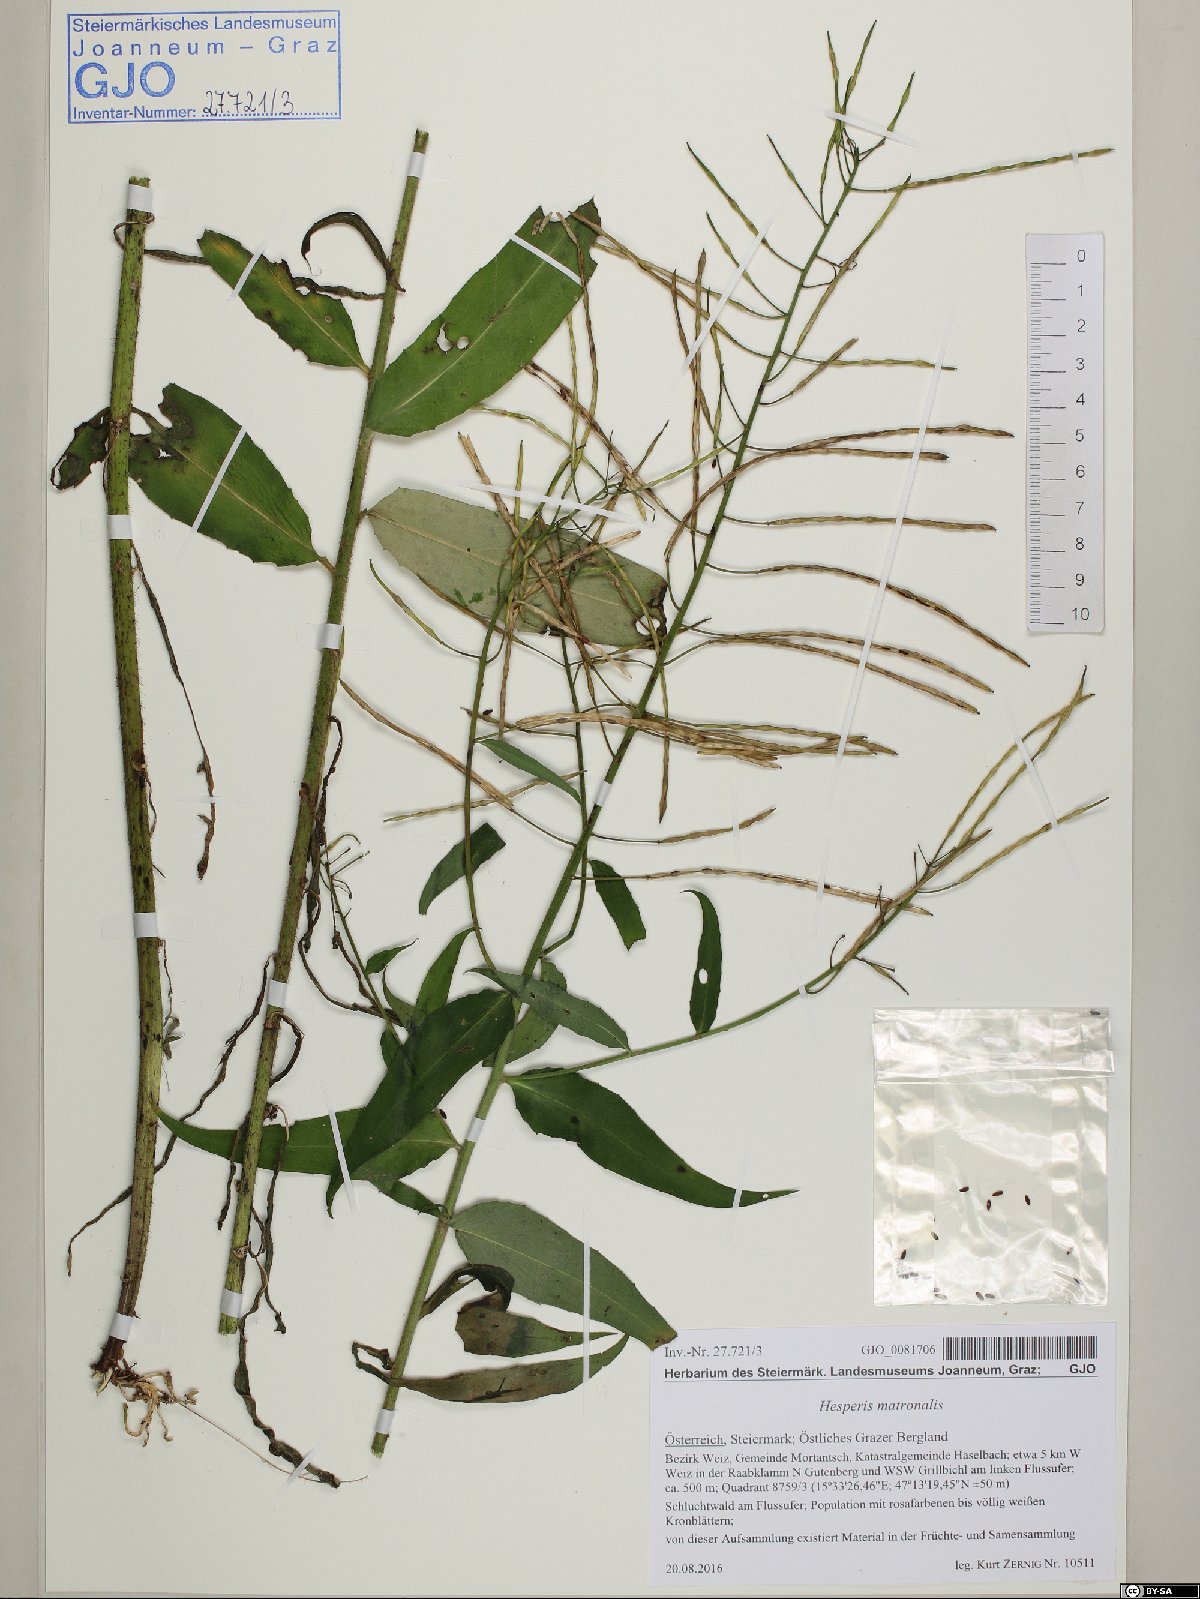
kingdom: Plantae
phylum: Tracheophyta
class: Magnoliopsida
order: Brassicales
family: Brassicaceae
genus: Hesperis
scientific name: Hesperis matronalis
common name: Dame's-violet
